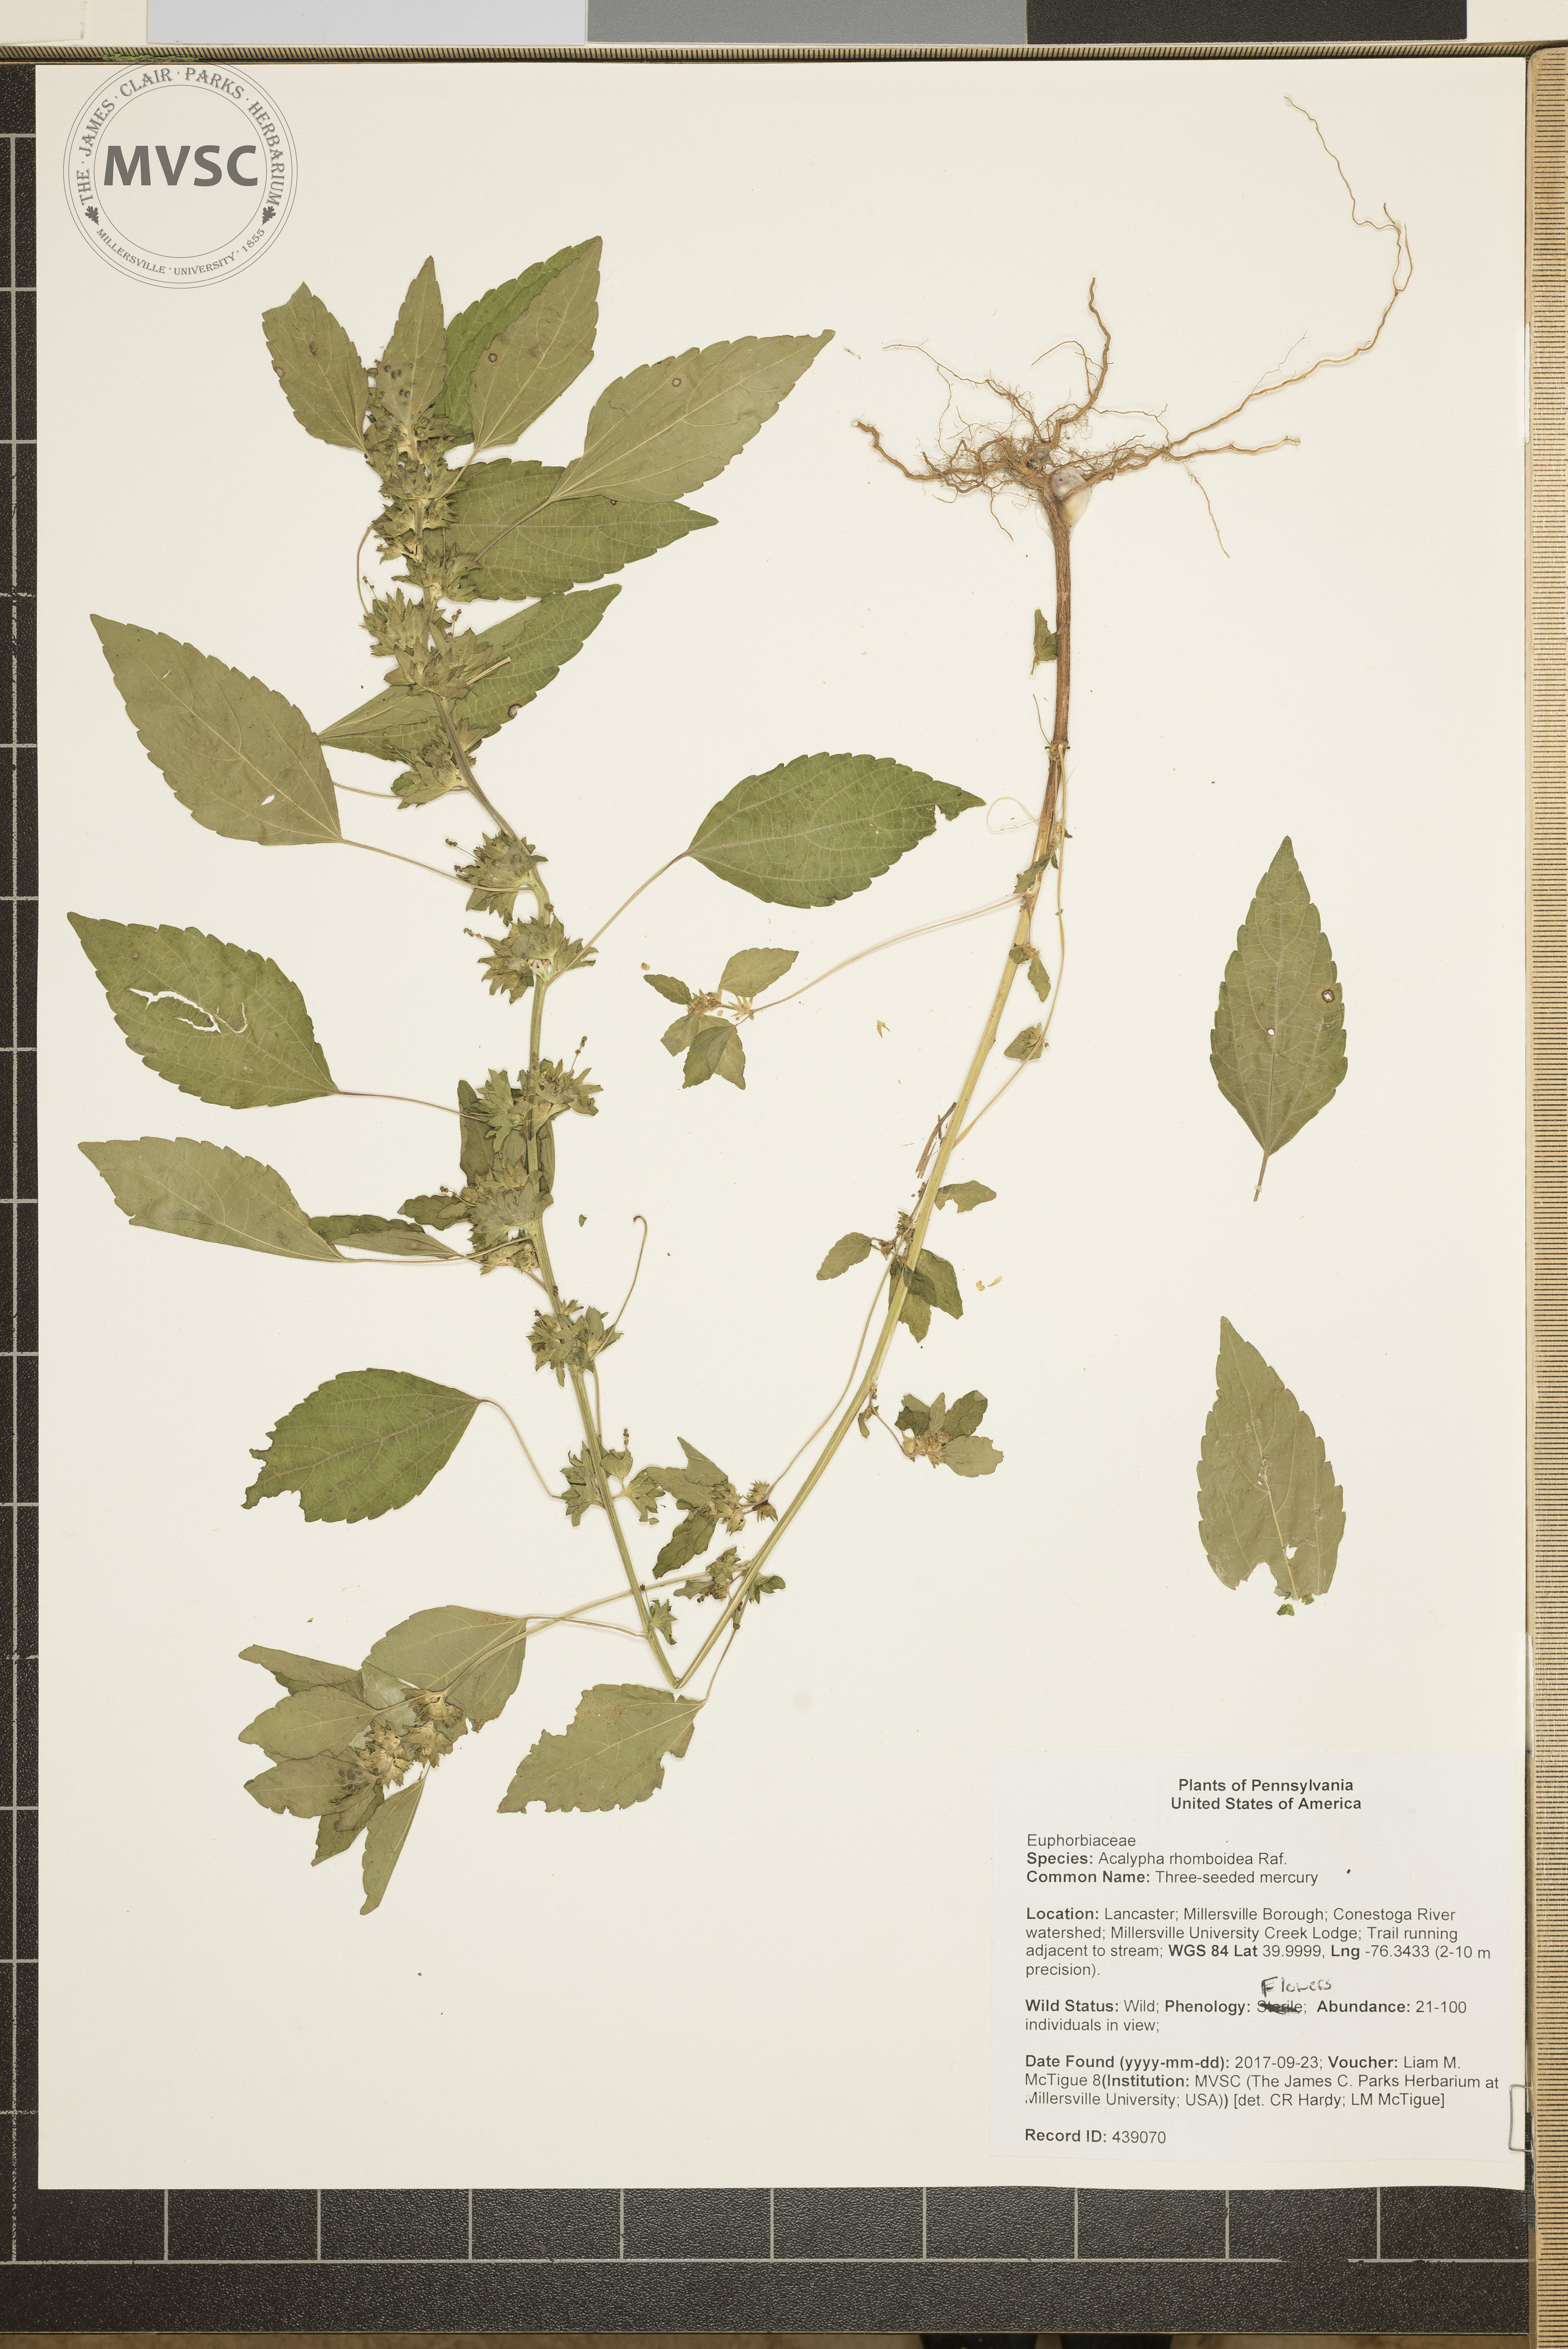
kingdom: Plantae
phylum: Tracheophyta
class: Magnoliopsida
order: Malpighiales
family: Euphorbiaceae
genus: Acalypha
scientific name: Acalypha rhomboidea
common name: three-seeded mercury
